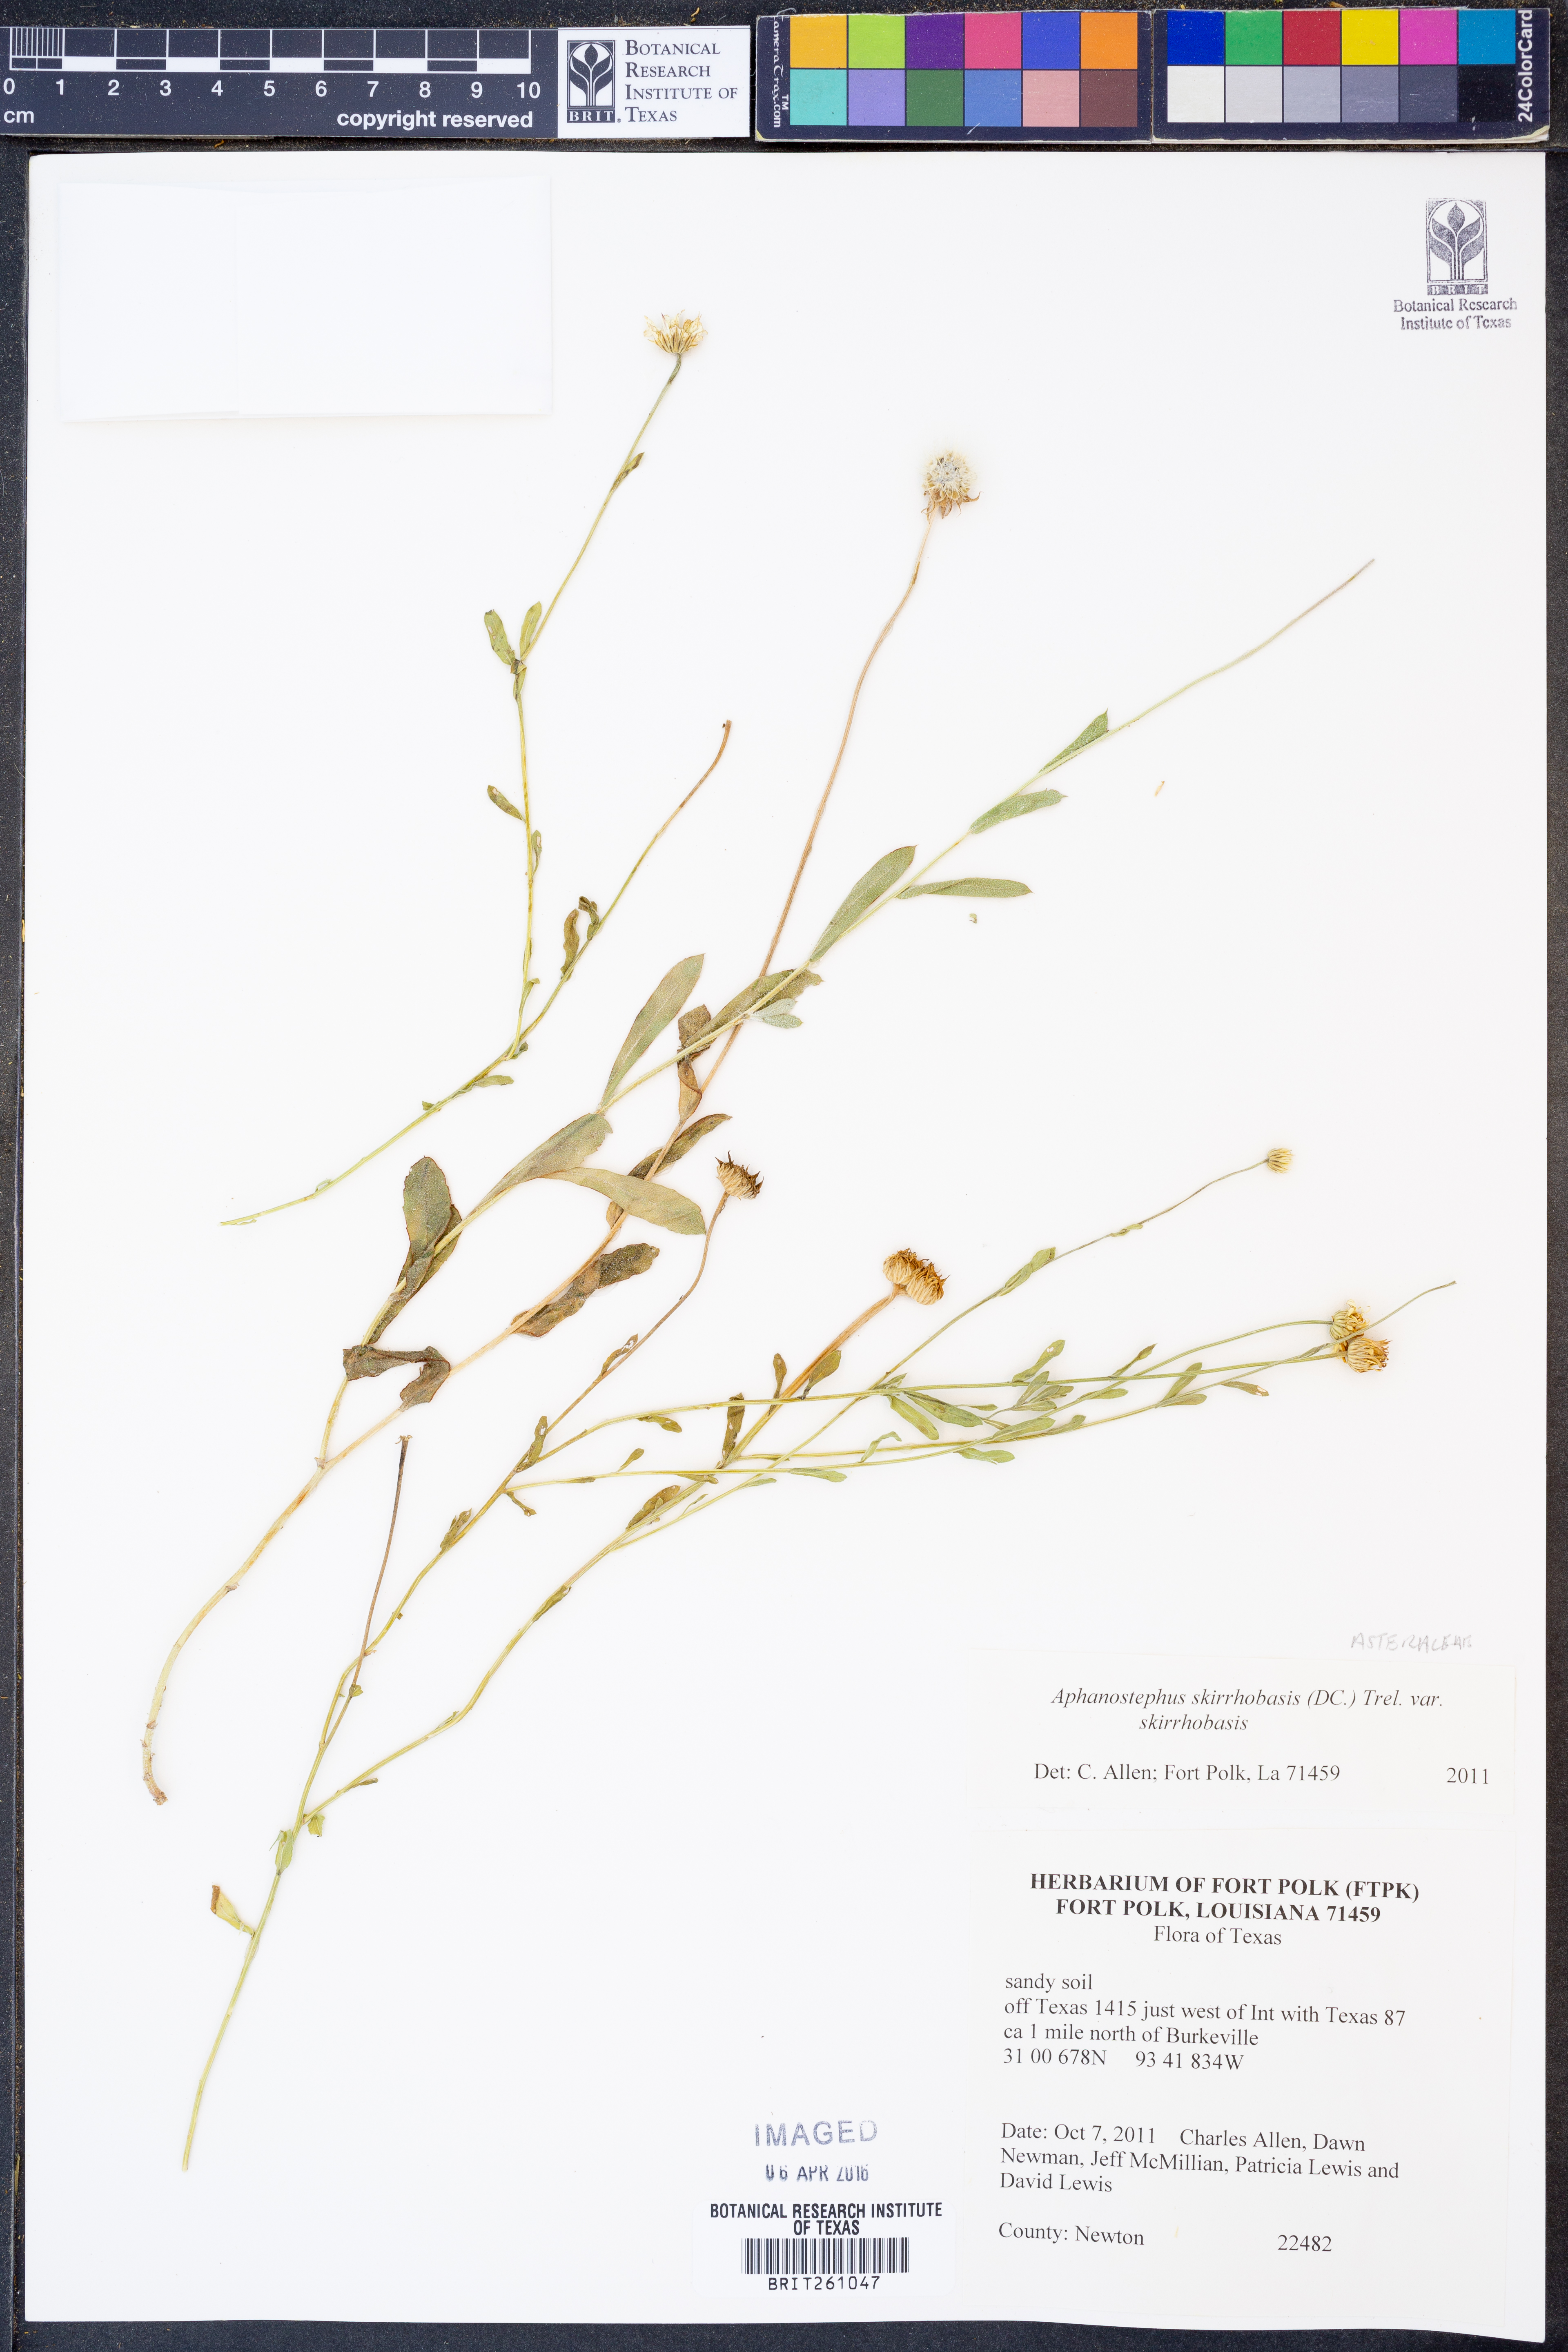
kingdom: Plantae
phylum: Tracheophyta
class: Magnoliopsida
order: Asterales
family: Asteraceae
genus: Aphanostephus
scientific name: Aphanostephus skirrhobasis
